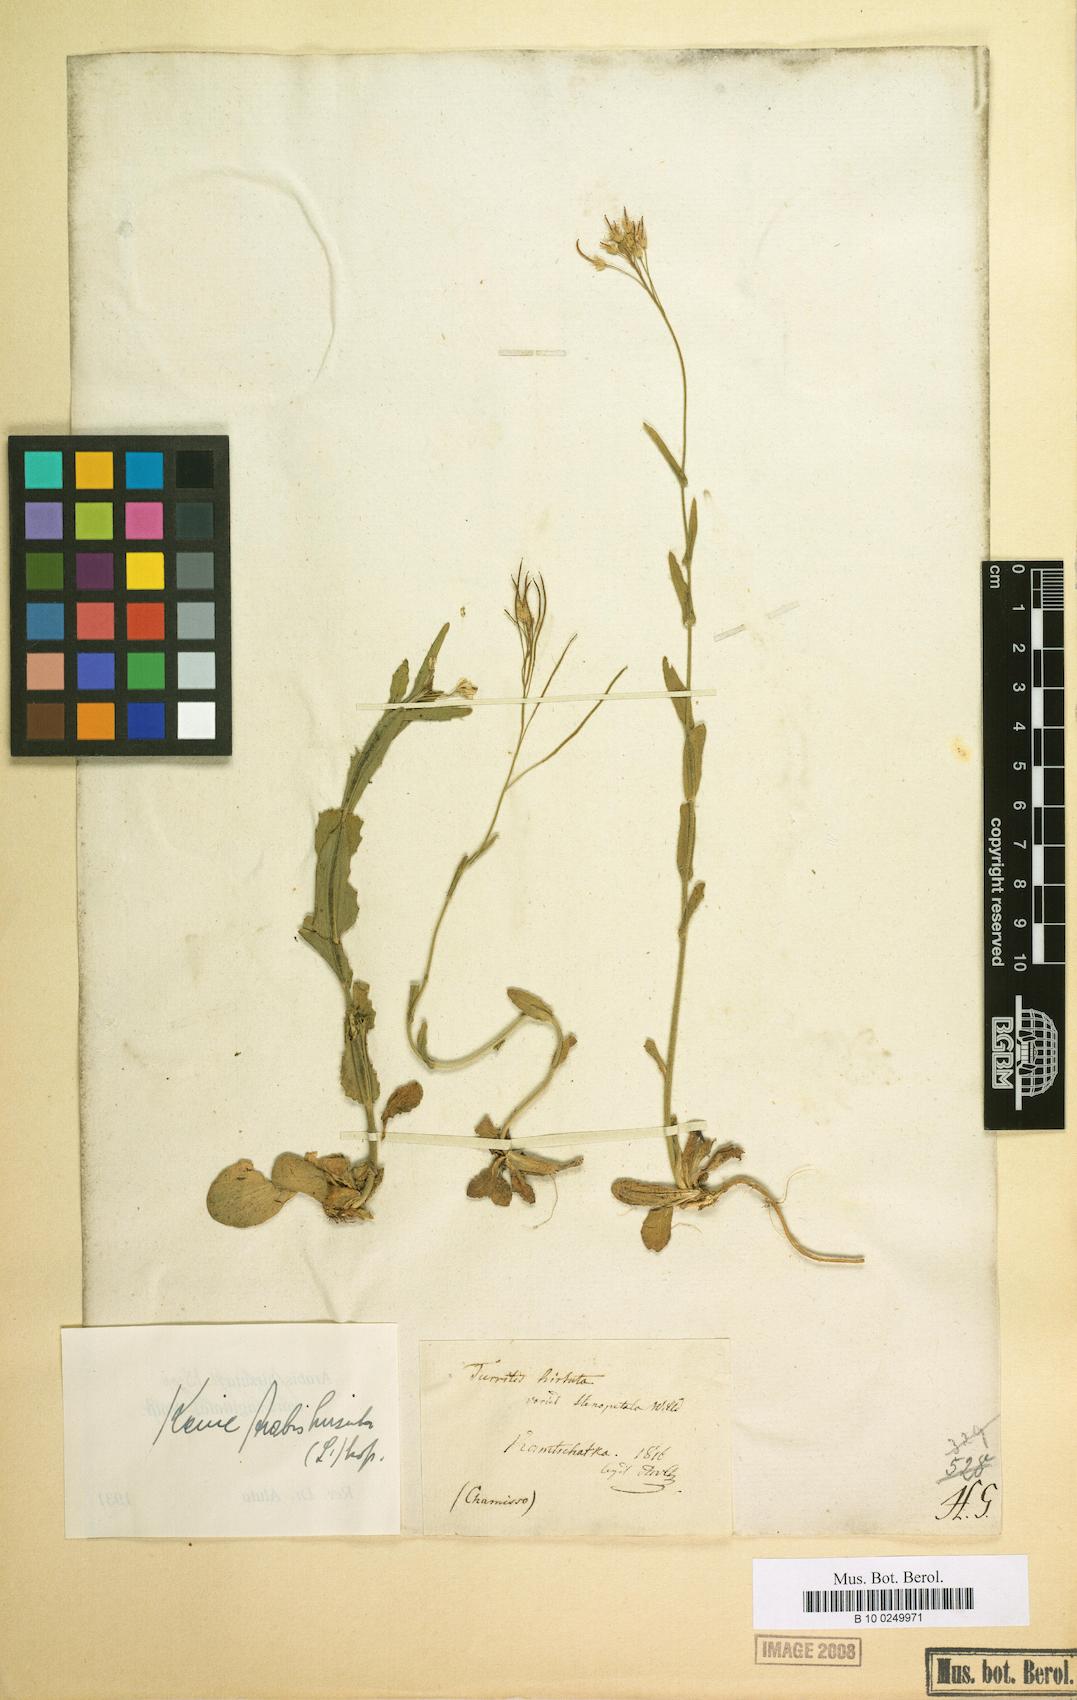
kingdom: Plantae
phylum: Tracheophyta
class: Magnoliopsida
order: Brassicales
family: Brassicaceae
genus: Arabis
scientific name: Arabis hirsuta
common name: Hairy rock-cress
